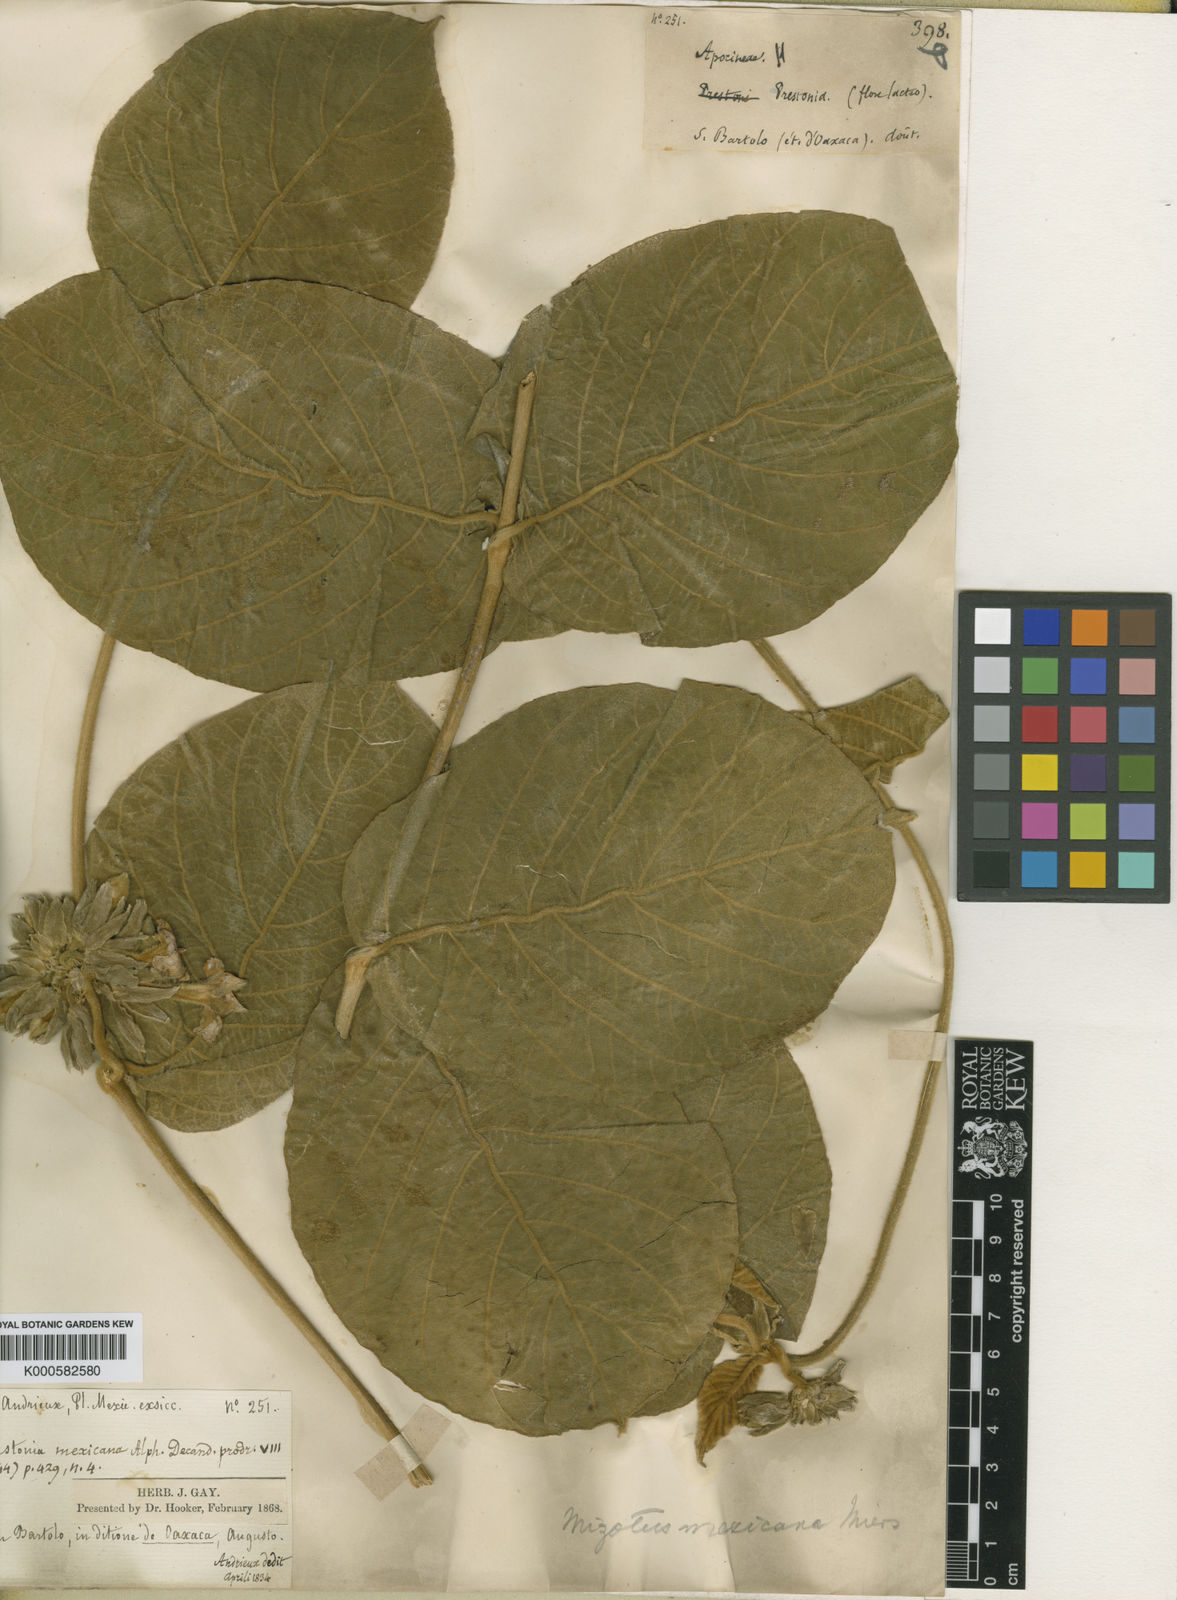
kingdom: Plantae
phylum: Tracheophyta
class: Magnoliopsida
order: Gentianales
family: Apocynaceae
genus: Prestonia
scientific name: Prestonia mexicana
